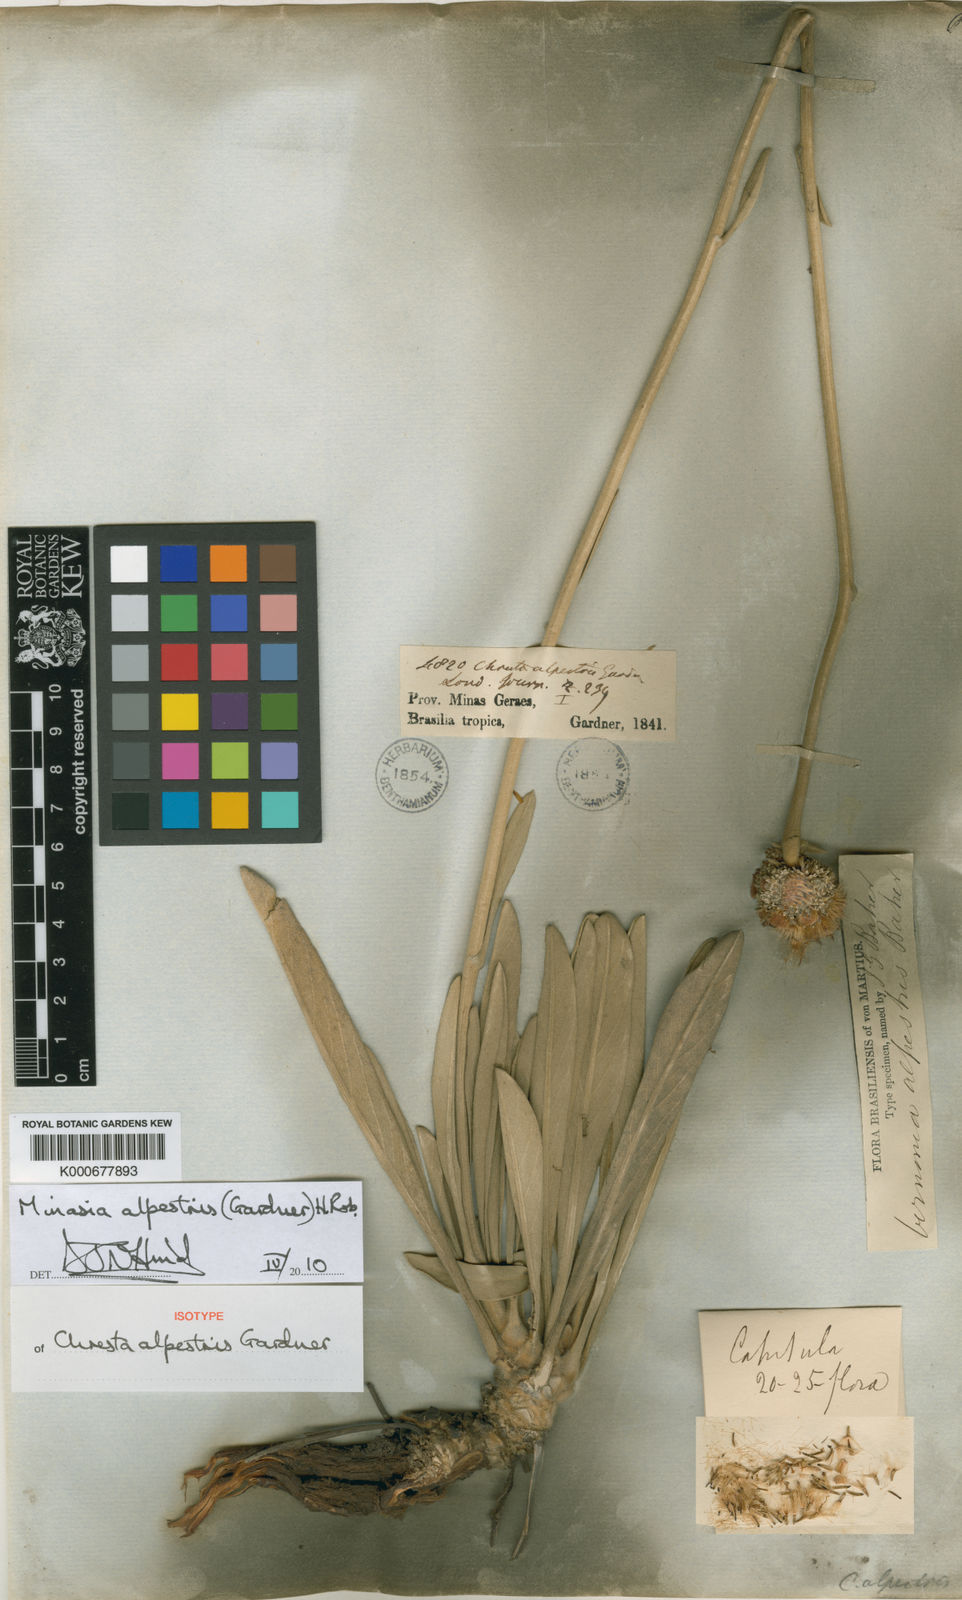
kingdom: Plantae
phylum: Tracheophyta
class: Magnoliopsida
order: Asterales
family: Asteraceae
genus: Minasia
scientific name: Minasia alpestris
